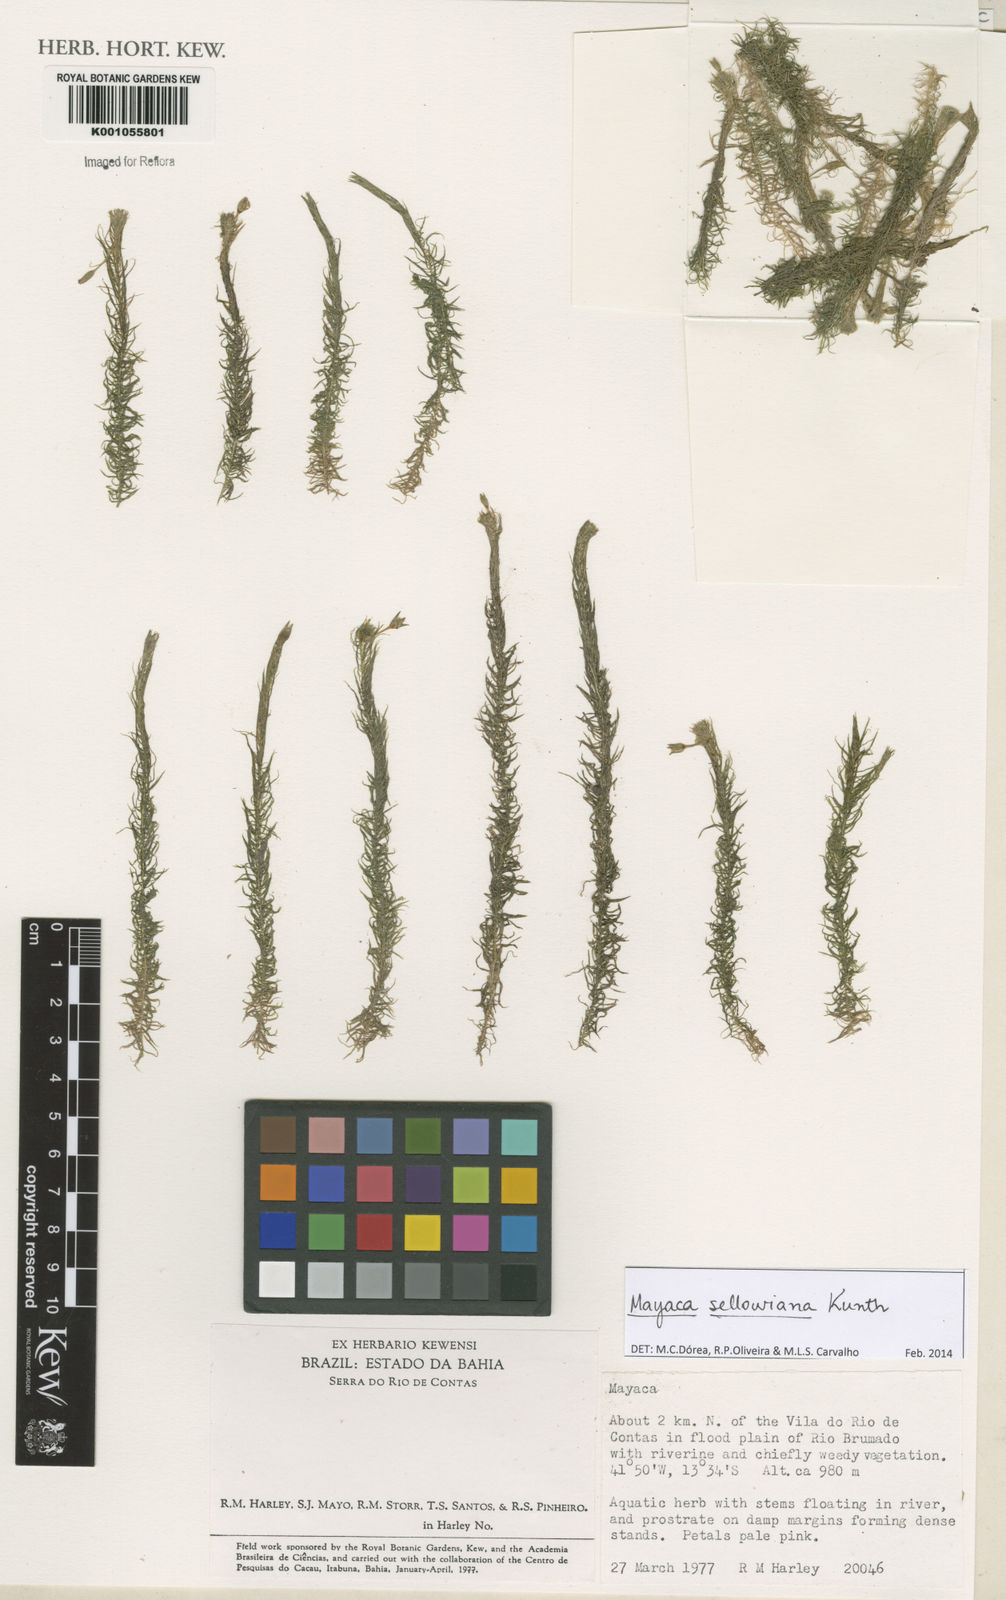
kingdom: Plantae
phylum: Tracheophyta
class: Liliopsida
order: Poales
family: Mayacaceae
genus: Mayaca
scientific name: Mayaca sellowiana
